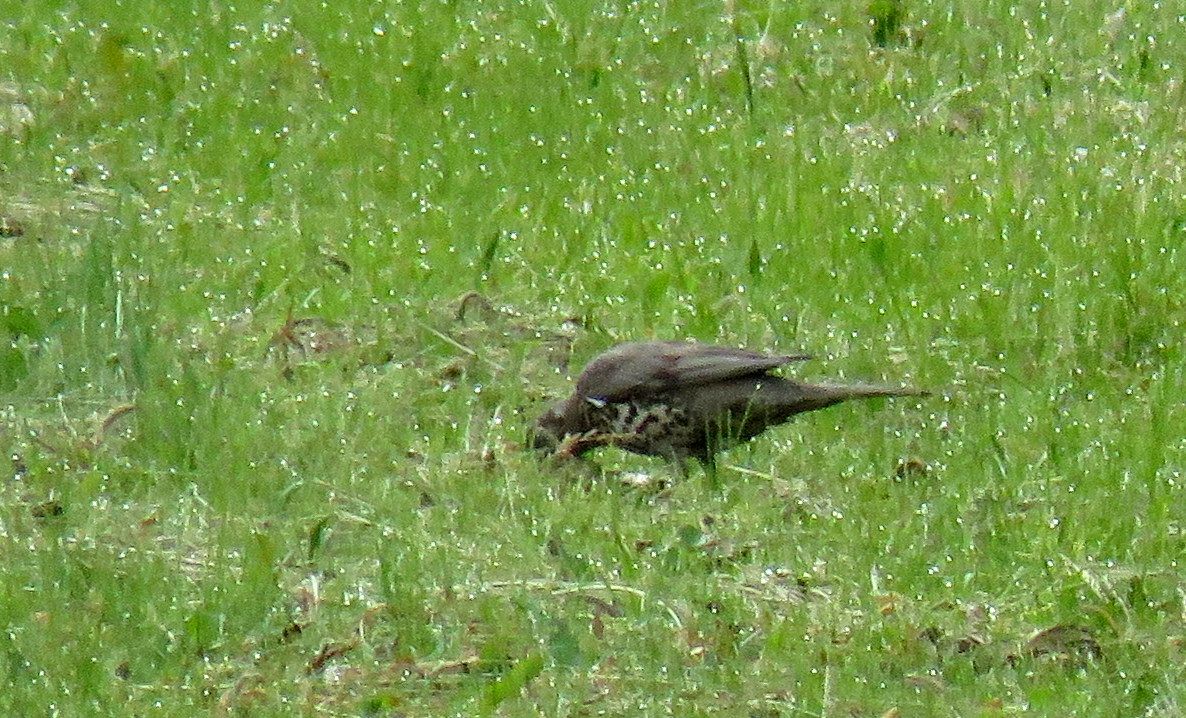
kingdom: Animalia
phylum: Chordata
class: Aves
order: Passeriformes
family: Turdidae
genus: Turdus
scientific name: Turdus
